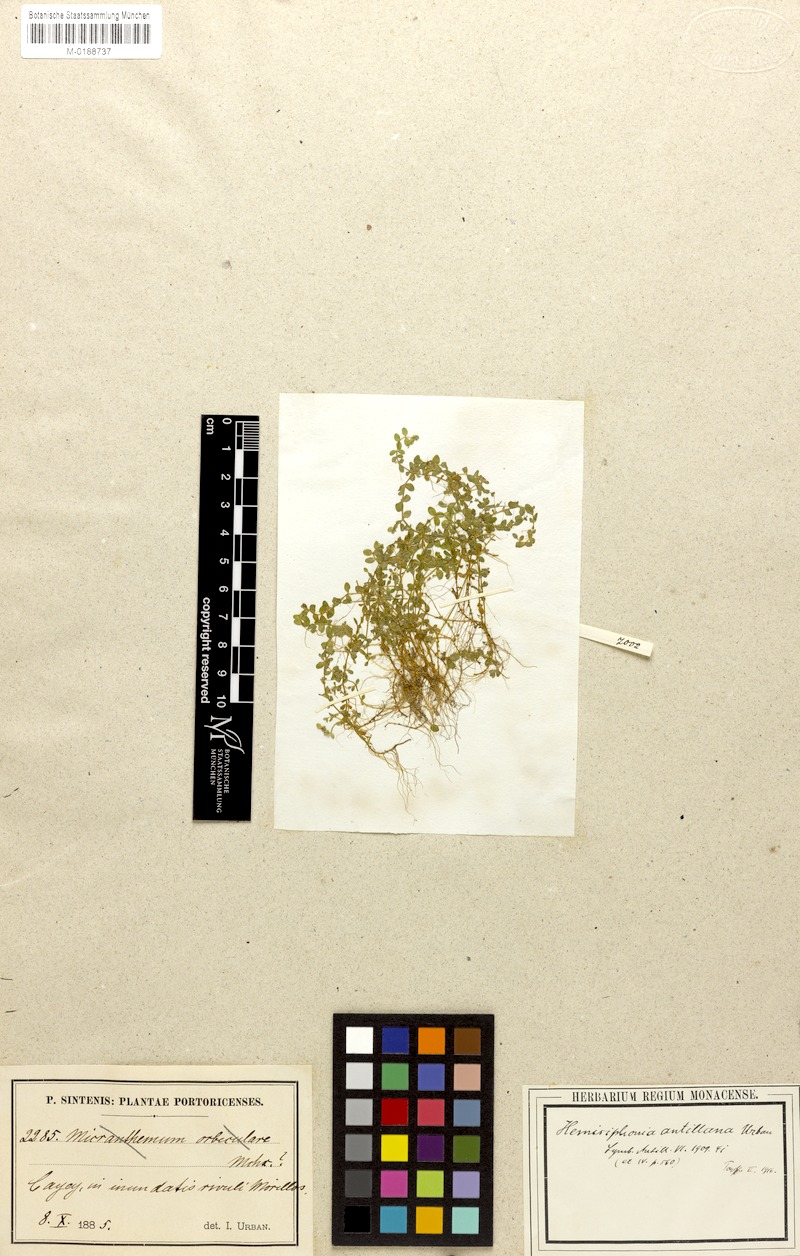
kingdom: Plantae
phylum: Tracheophyta
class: Magnoliopsida
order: Lamiales
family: Linderniaceae
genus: Micranthemum
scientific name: Micranthemum callitrichoides
